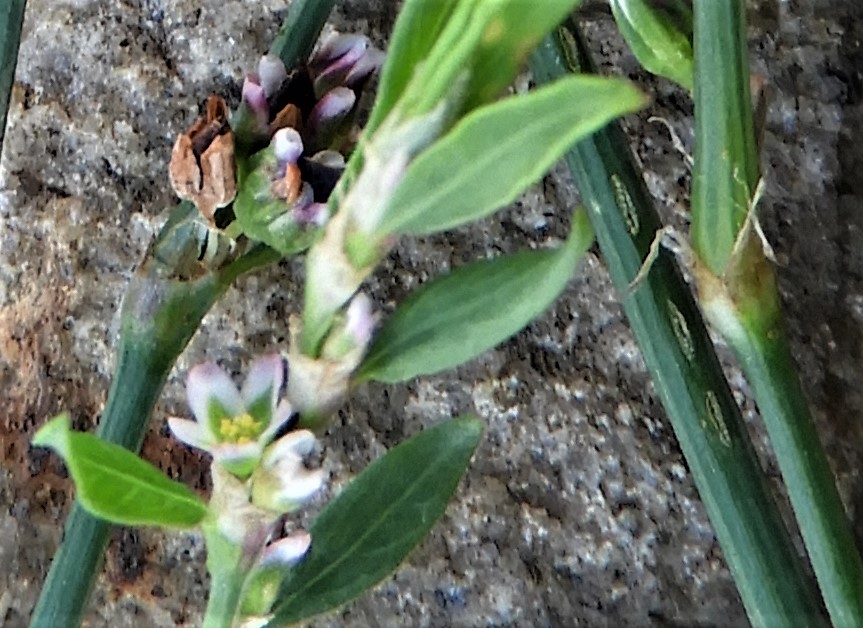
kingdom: Fungi
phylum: Basidiomycota
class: Pucciniomycetes
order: Pucciniales
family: Pucciniaceae
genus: Uromyces
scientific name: Uromyces polygoni-avicularis
